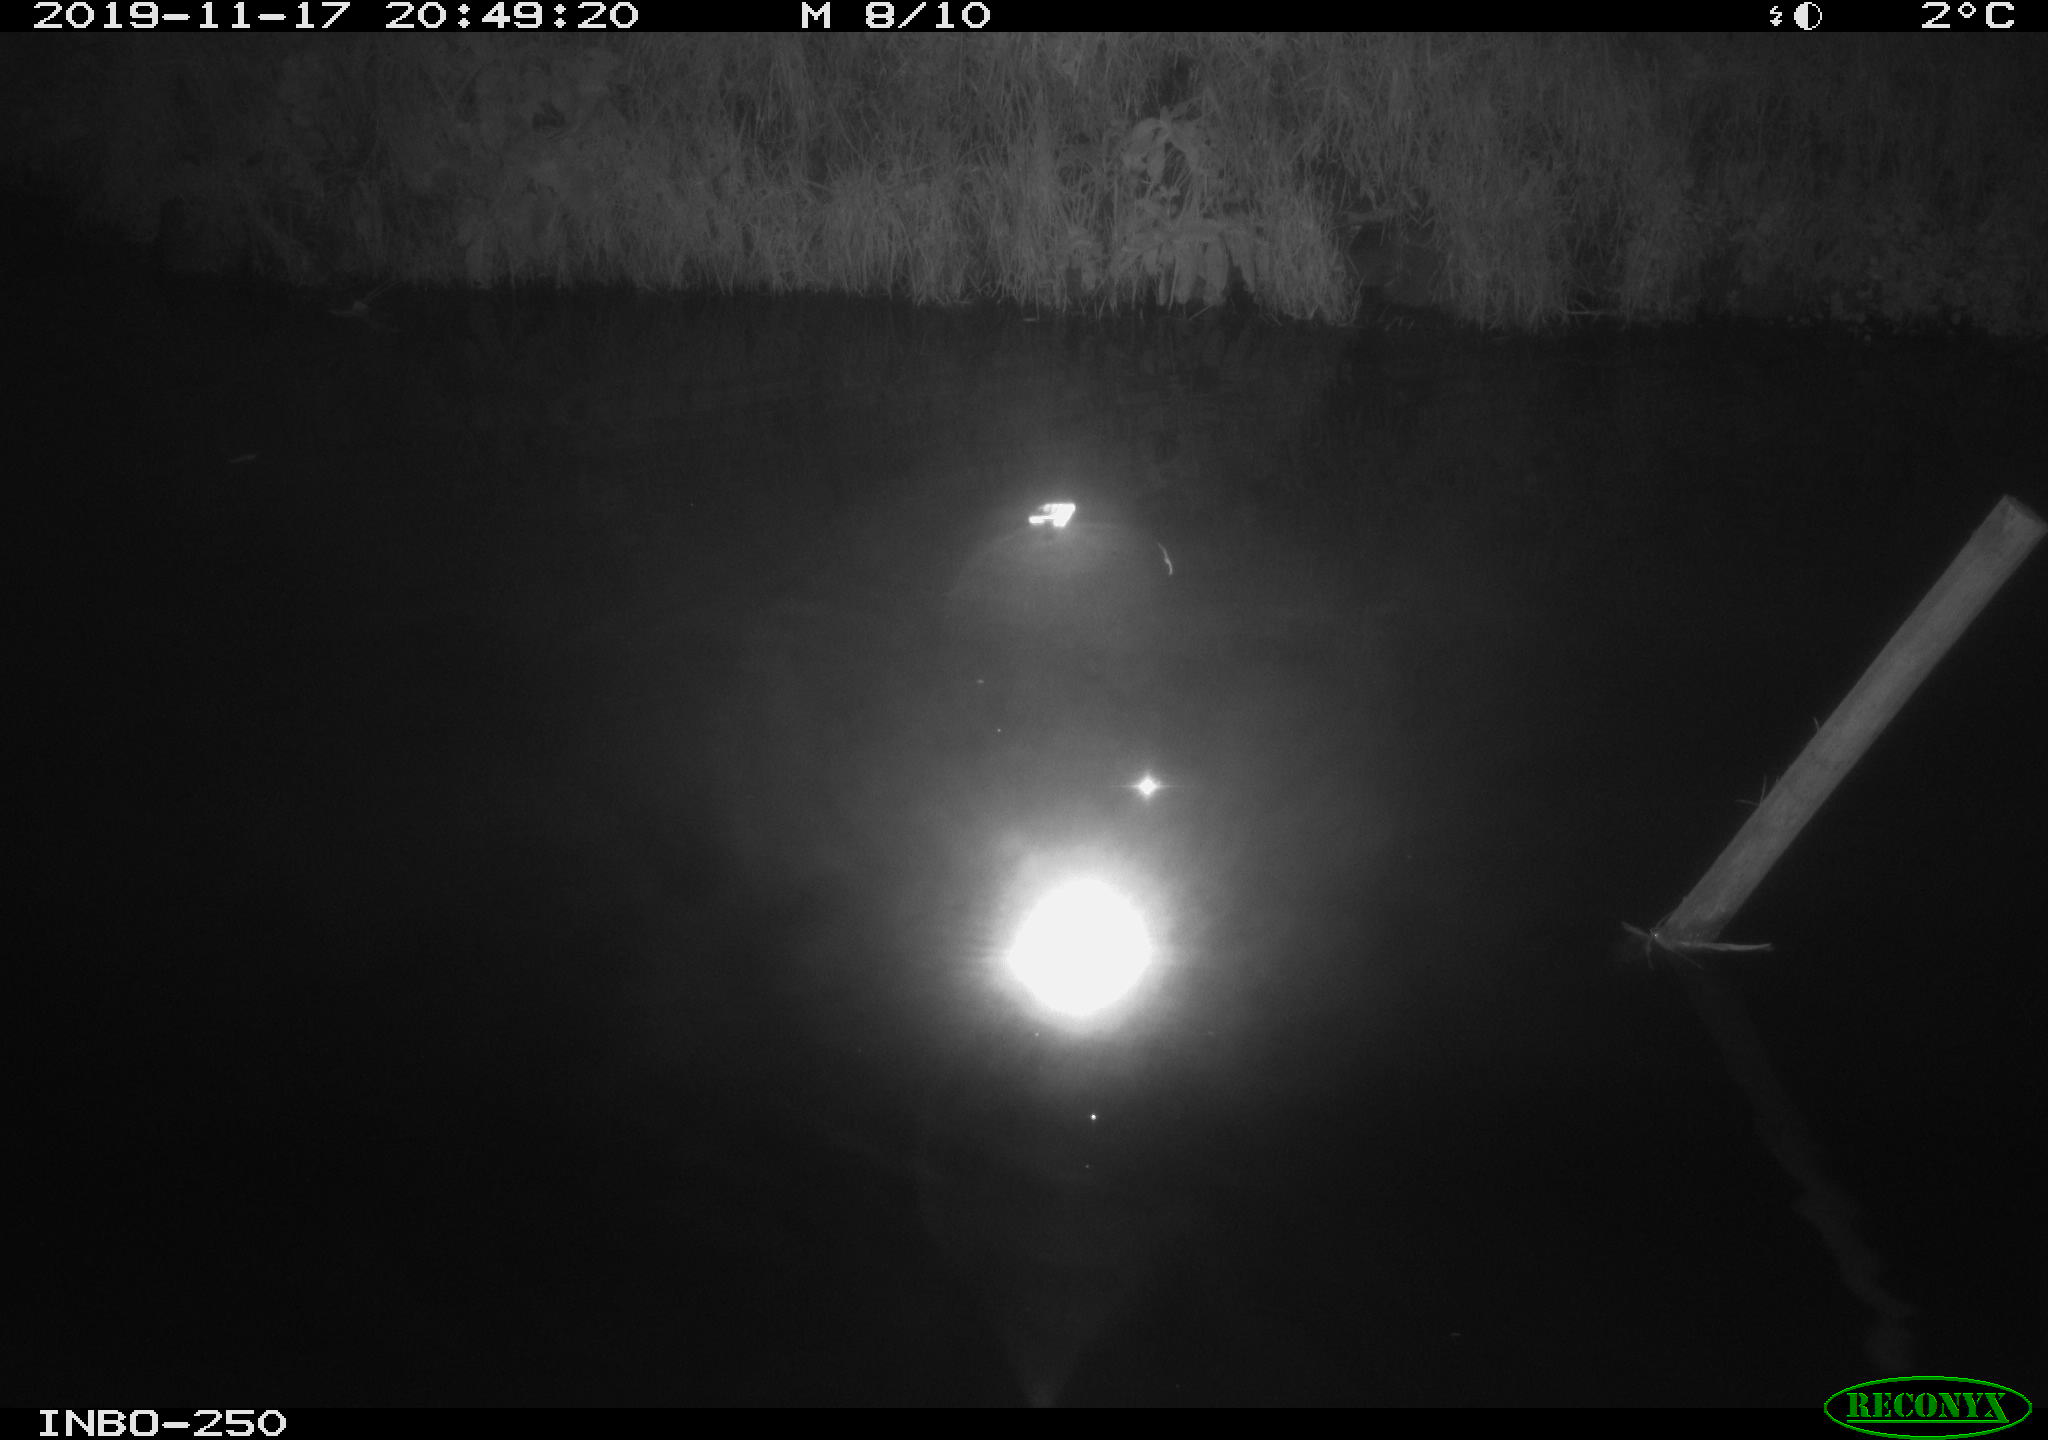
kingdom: Animalia
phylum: Chordata
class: Aves
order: Anseriformes
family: Anatidae
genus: Anas
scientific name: Anas platyrhynchos
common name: Mallard
